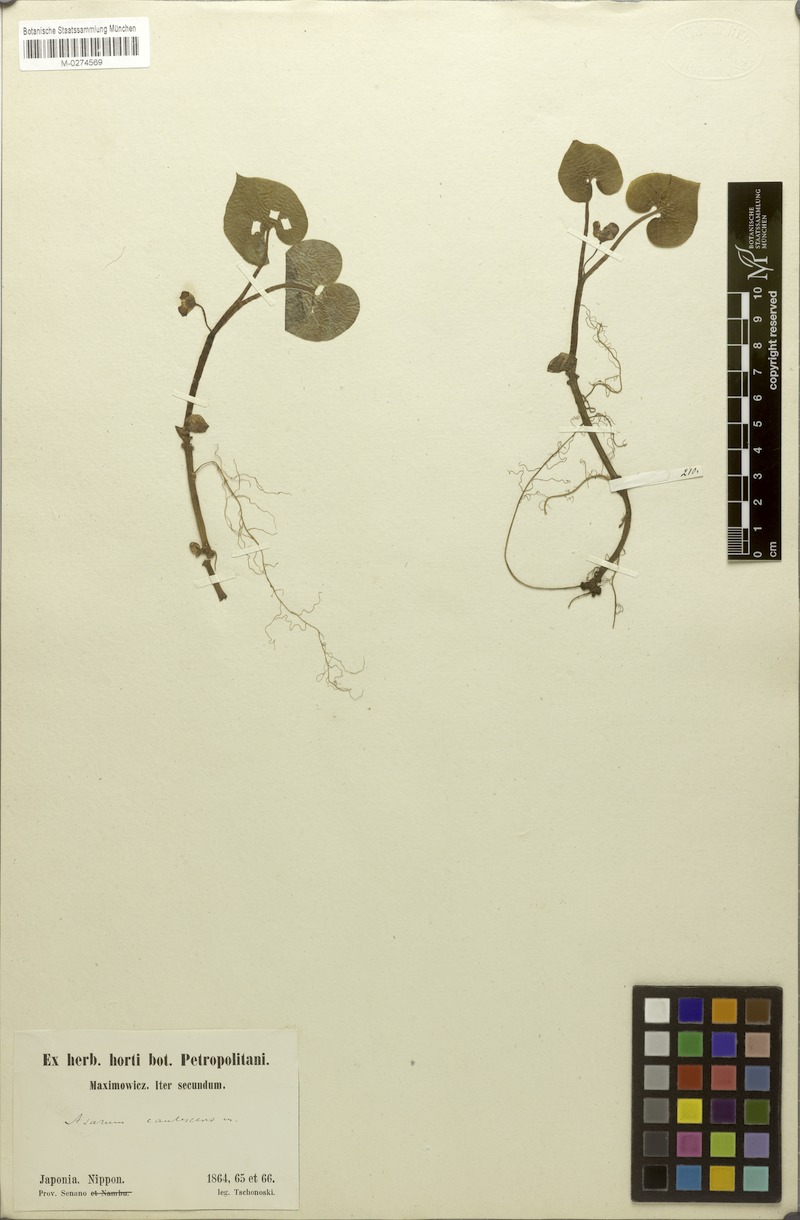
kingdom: Plantae
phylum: Tracheophyta
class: Magnoliopsida
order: Piperales
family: Aristolochiaceae
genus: Asarum
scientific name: Asarum caulescens
